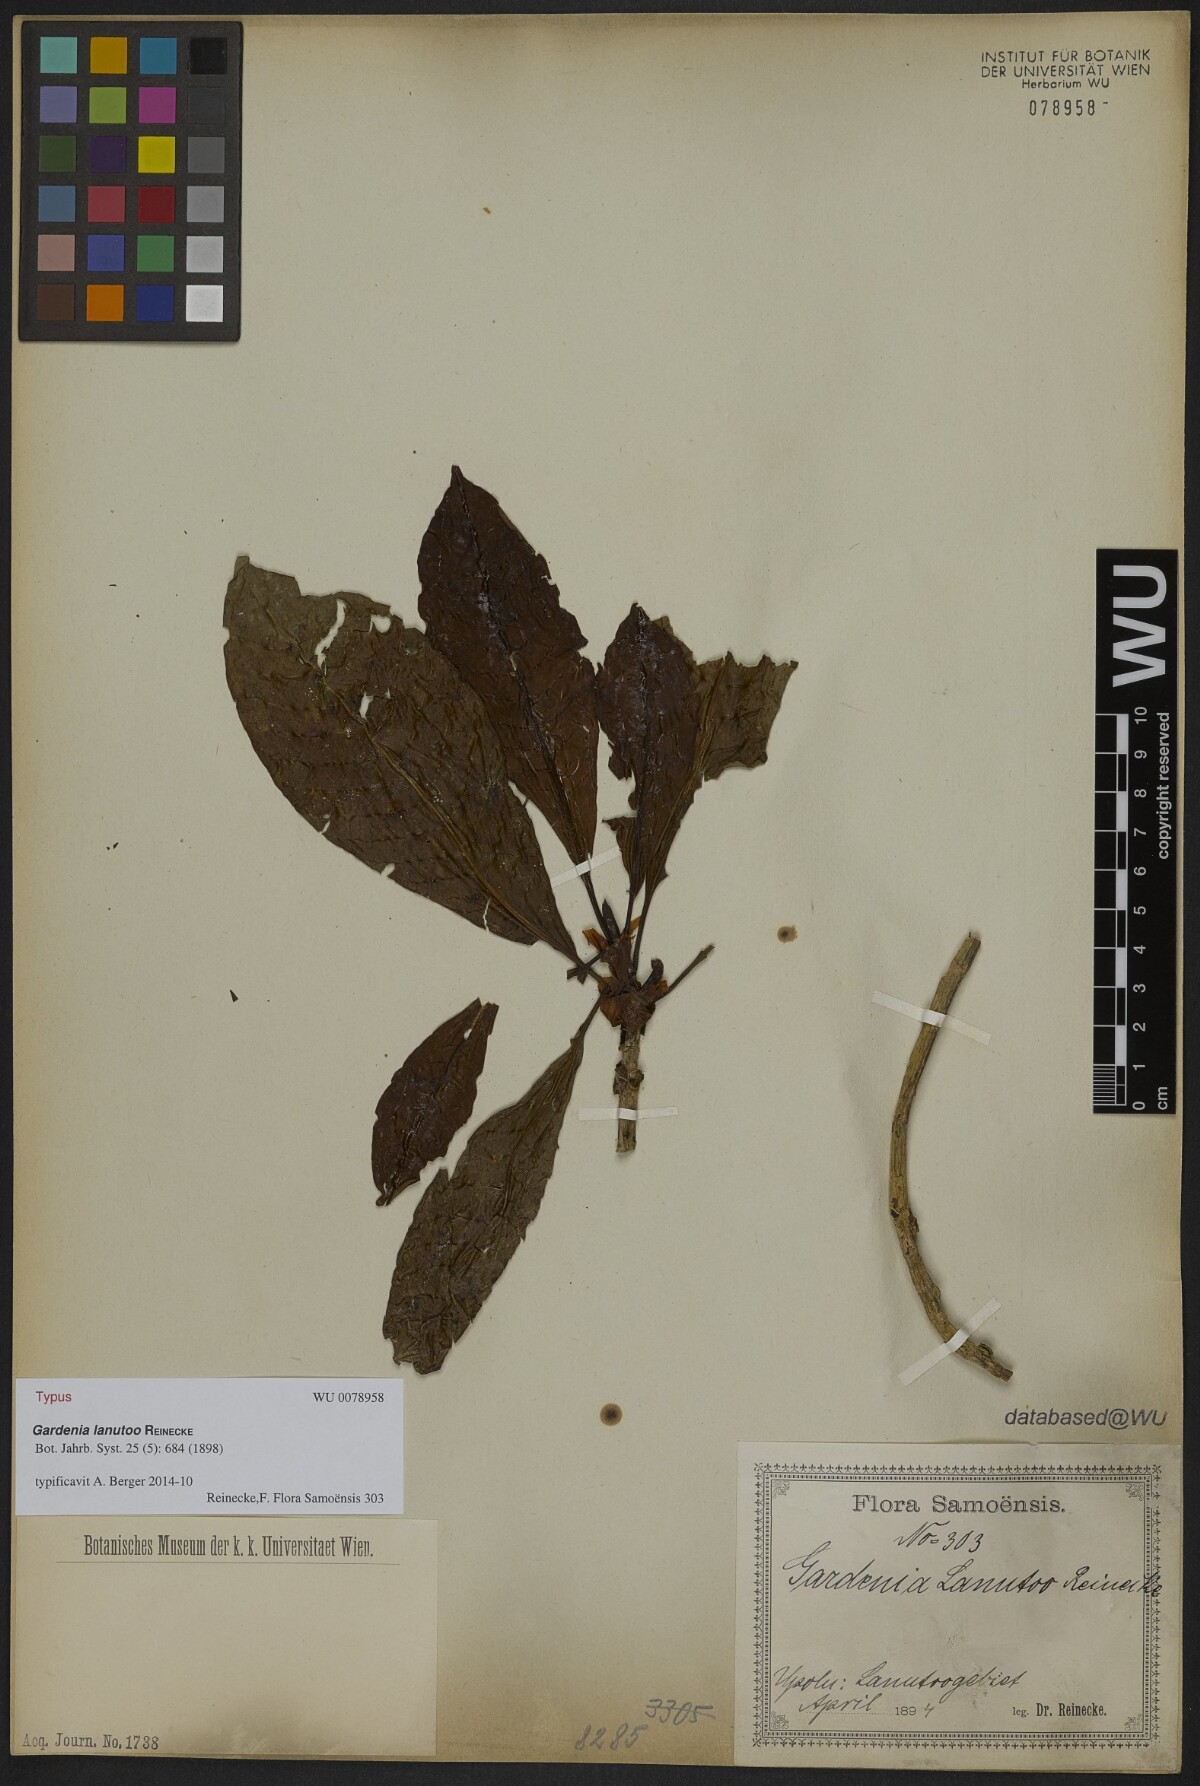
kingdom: Plantae
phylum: Tracheophyta
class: Magnoliopsida
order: Gentianales
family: Rubiaceae
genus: Gardenia
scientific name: Gardenia lanutoo
